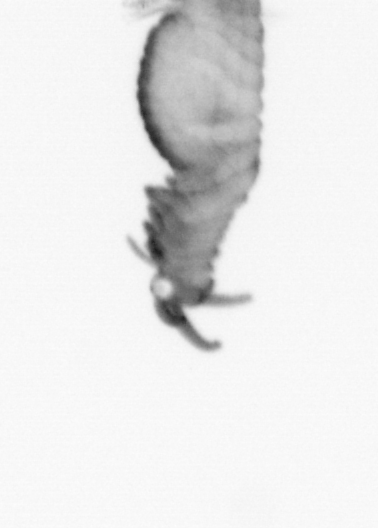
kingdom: Animalia
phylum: Annelida
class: Polychaeta
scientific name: Polychaeta
